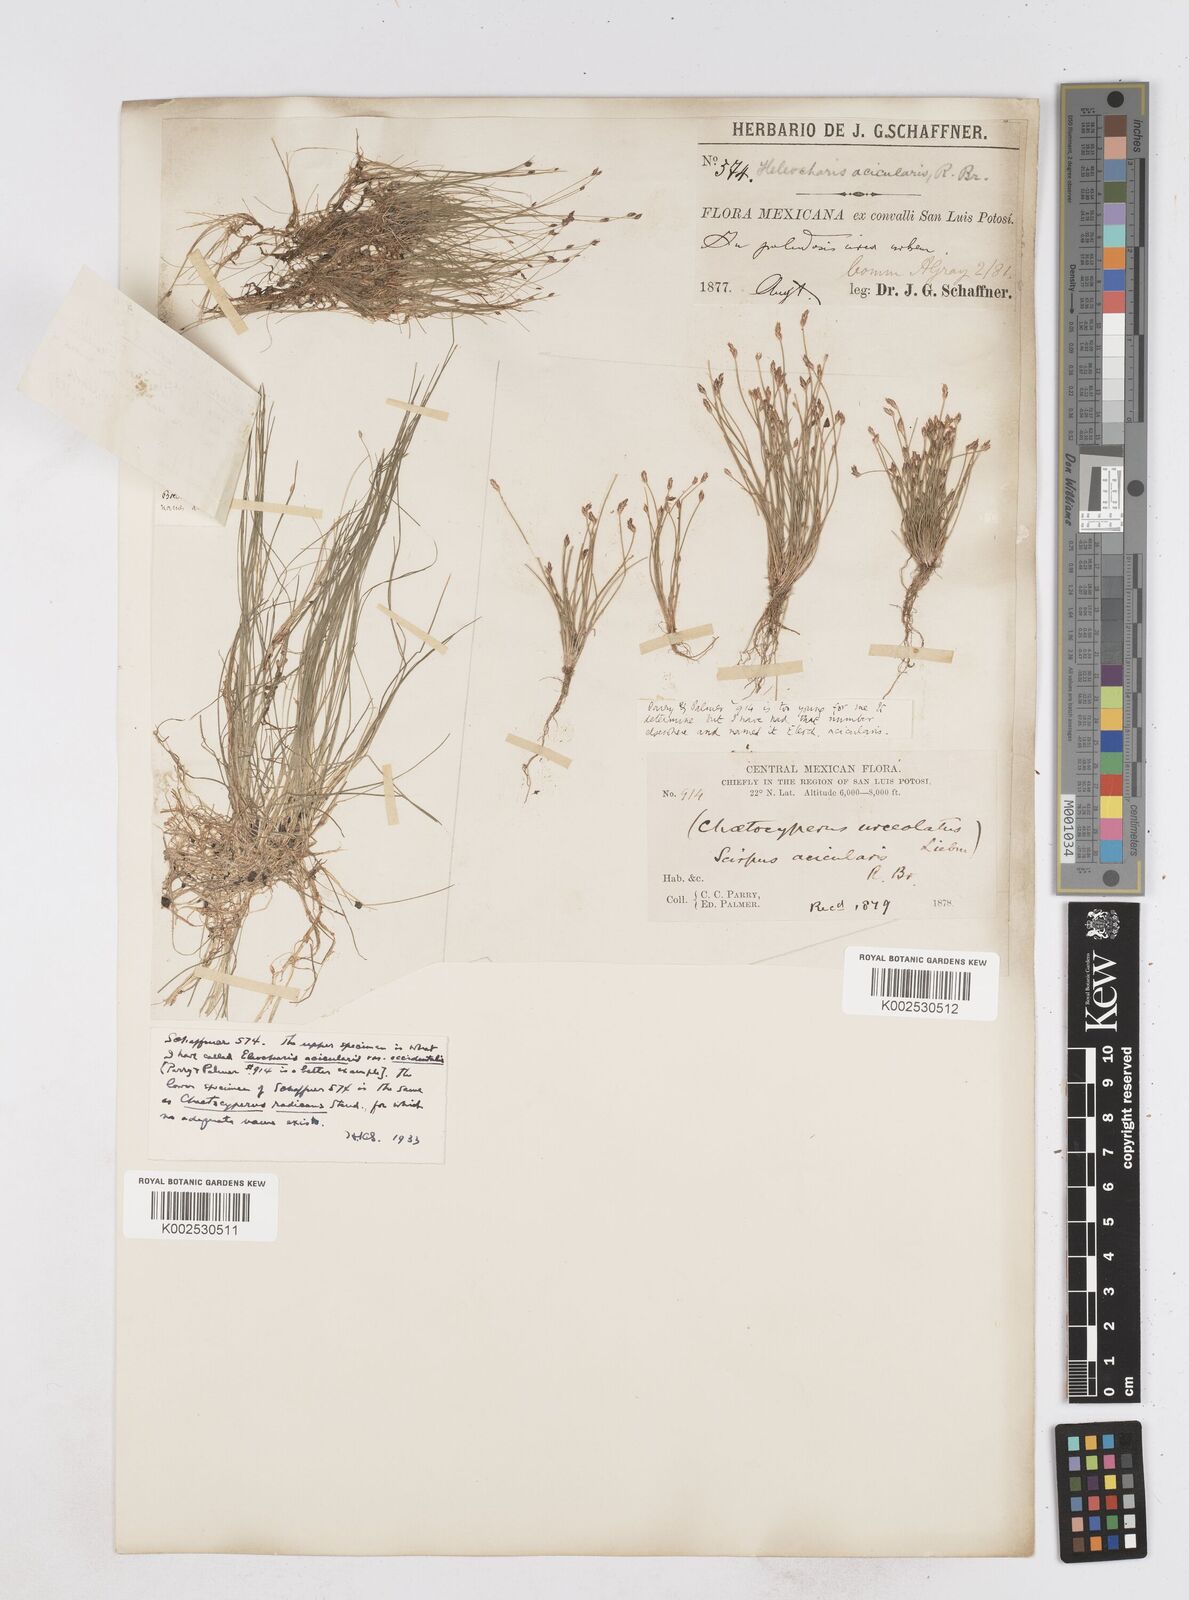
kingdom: Plantae
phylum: Tracheophyta
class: Liliopsida
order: Poales
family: Cyperaceae
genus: Eleocharis
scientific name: Eleocharis acicularis
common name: Needle spike-rush
